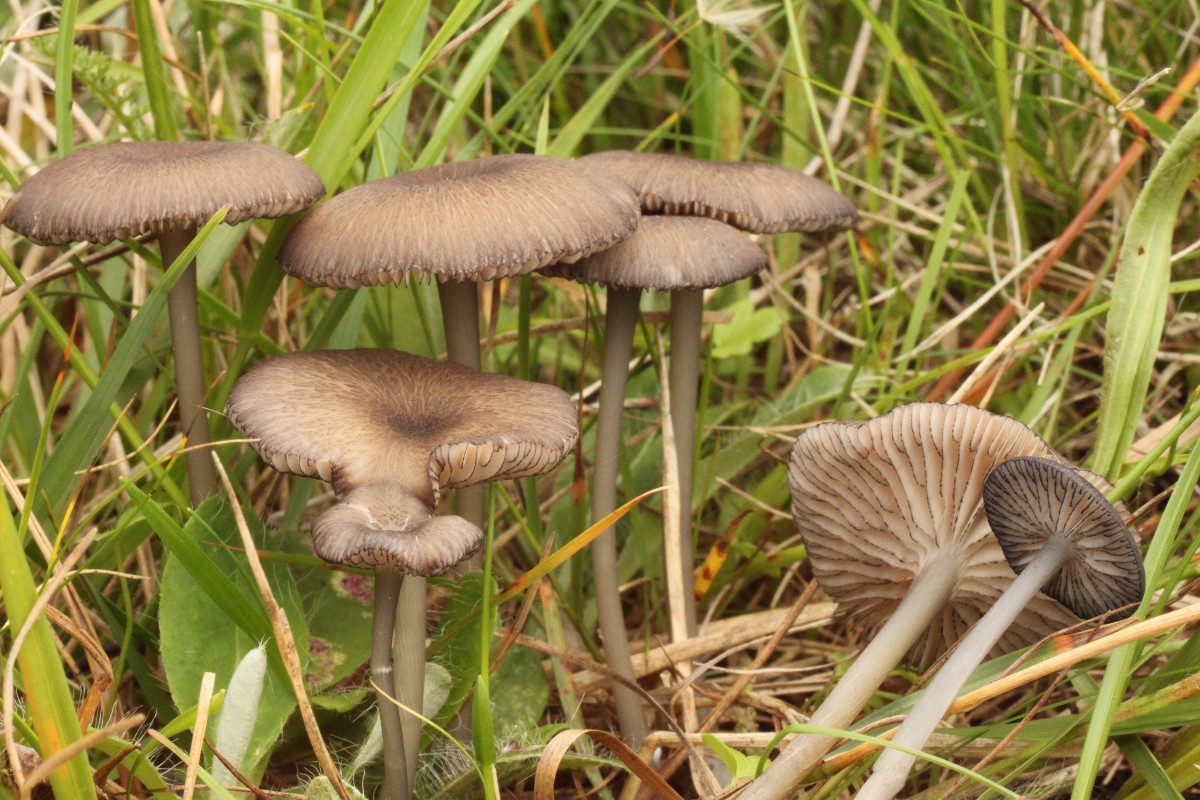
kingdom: Fungi
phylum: Basidiomycota
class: Agaricomycetes
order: Agaricales
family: Entolomataceae
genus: Entoloma
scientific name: Entoloma
